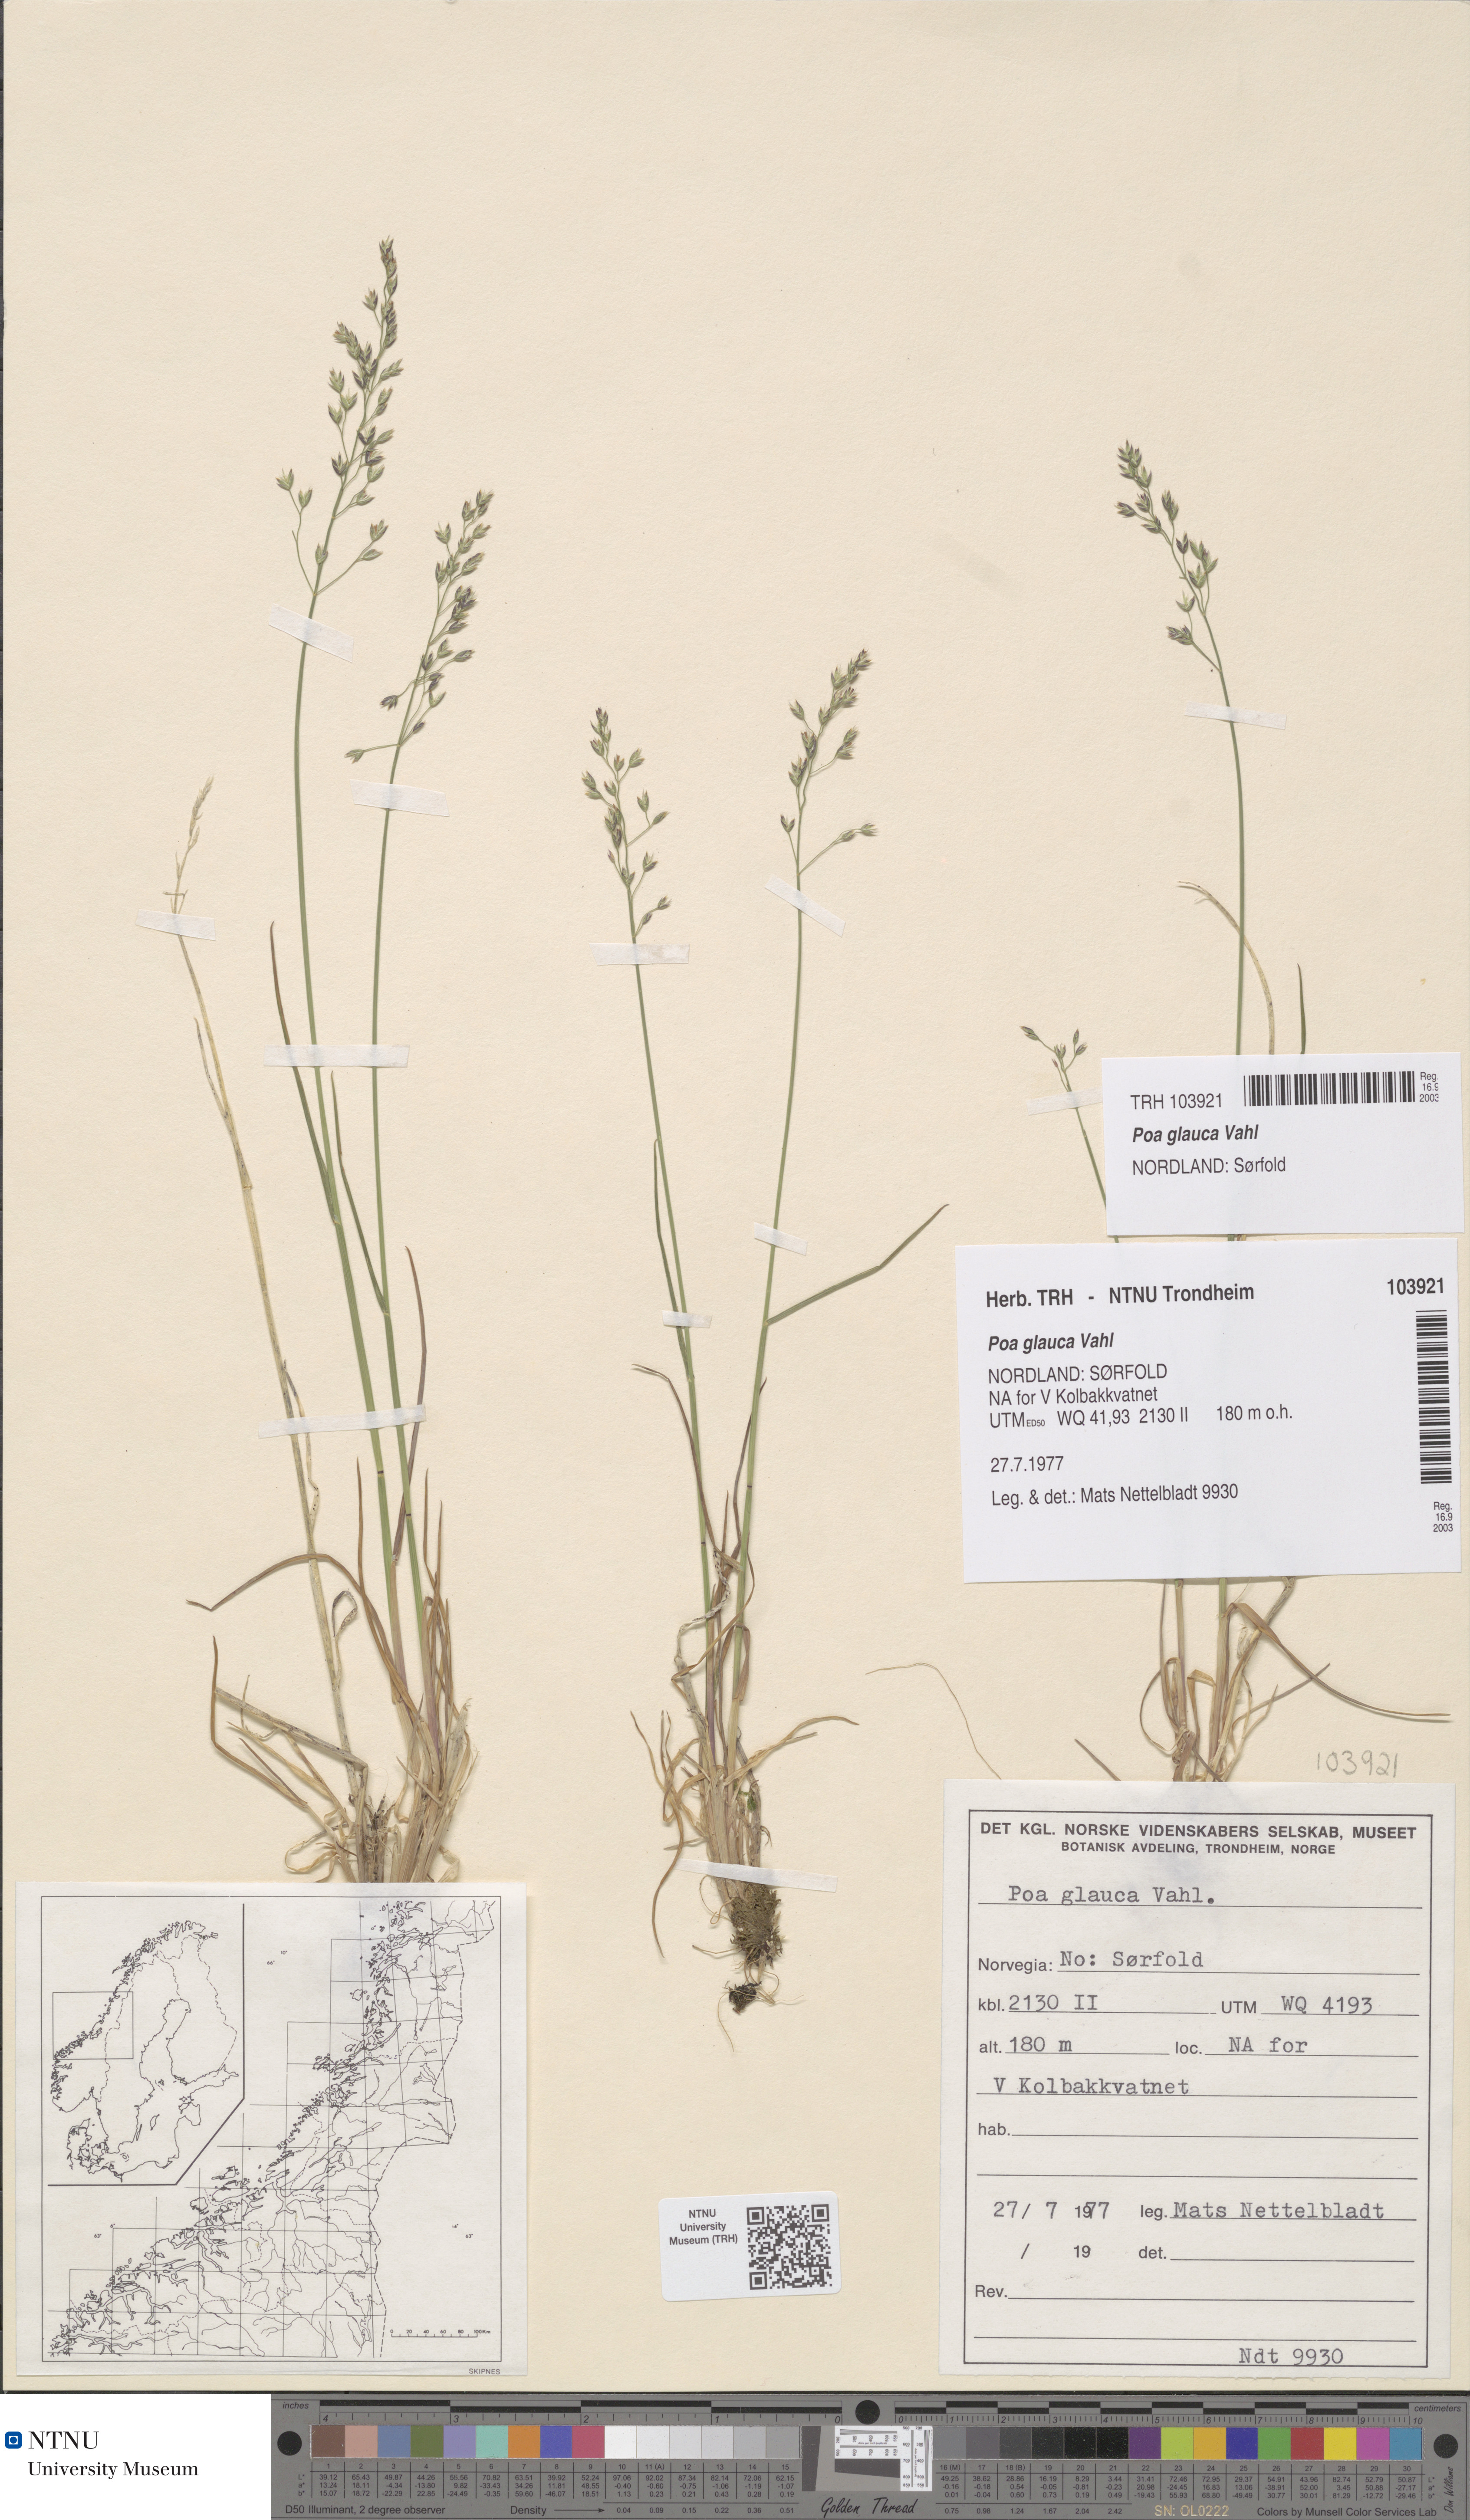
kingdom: Plantae
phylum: Tracheophyta
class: Liliopsida
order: Poales
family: Poaceae
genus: Poa
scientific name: Poa glauca
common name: Glaucous bluegrass
